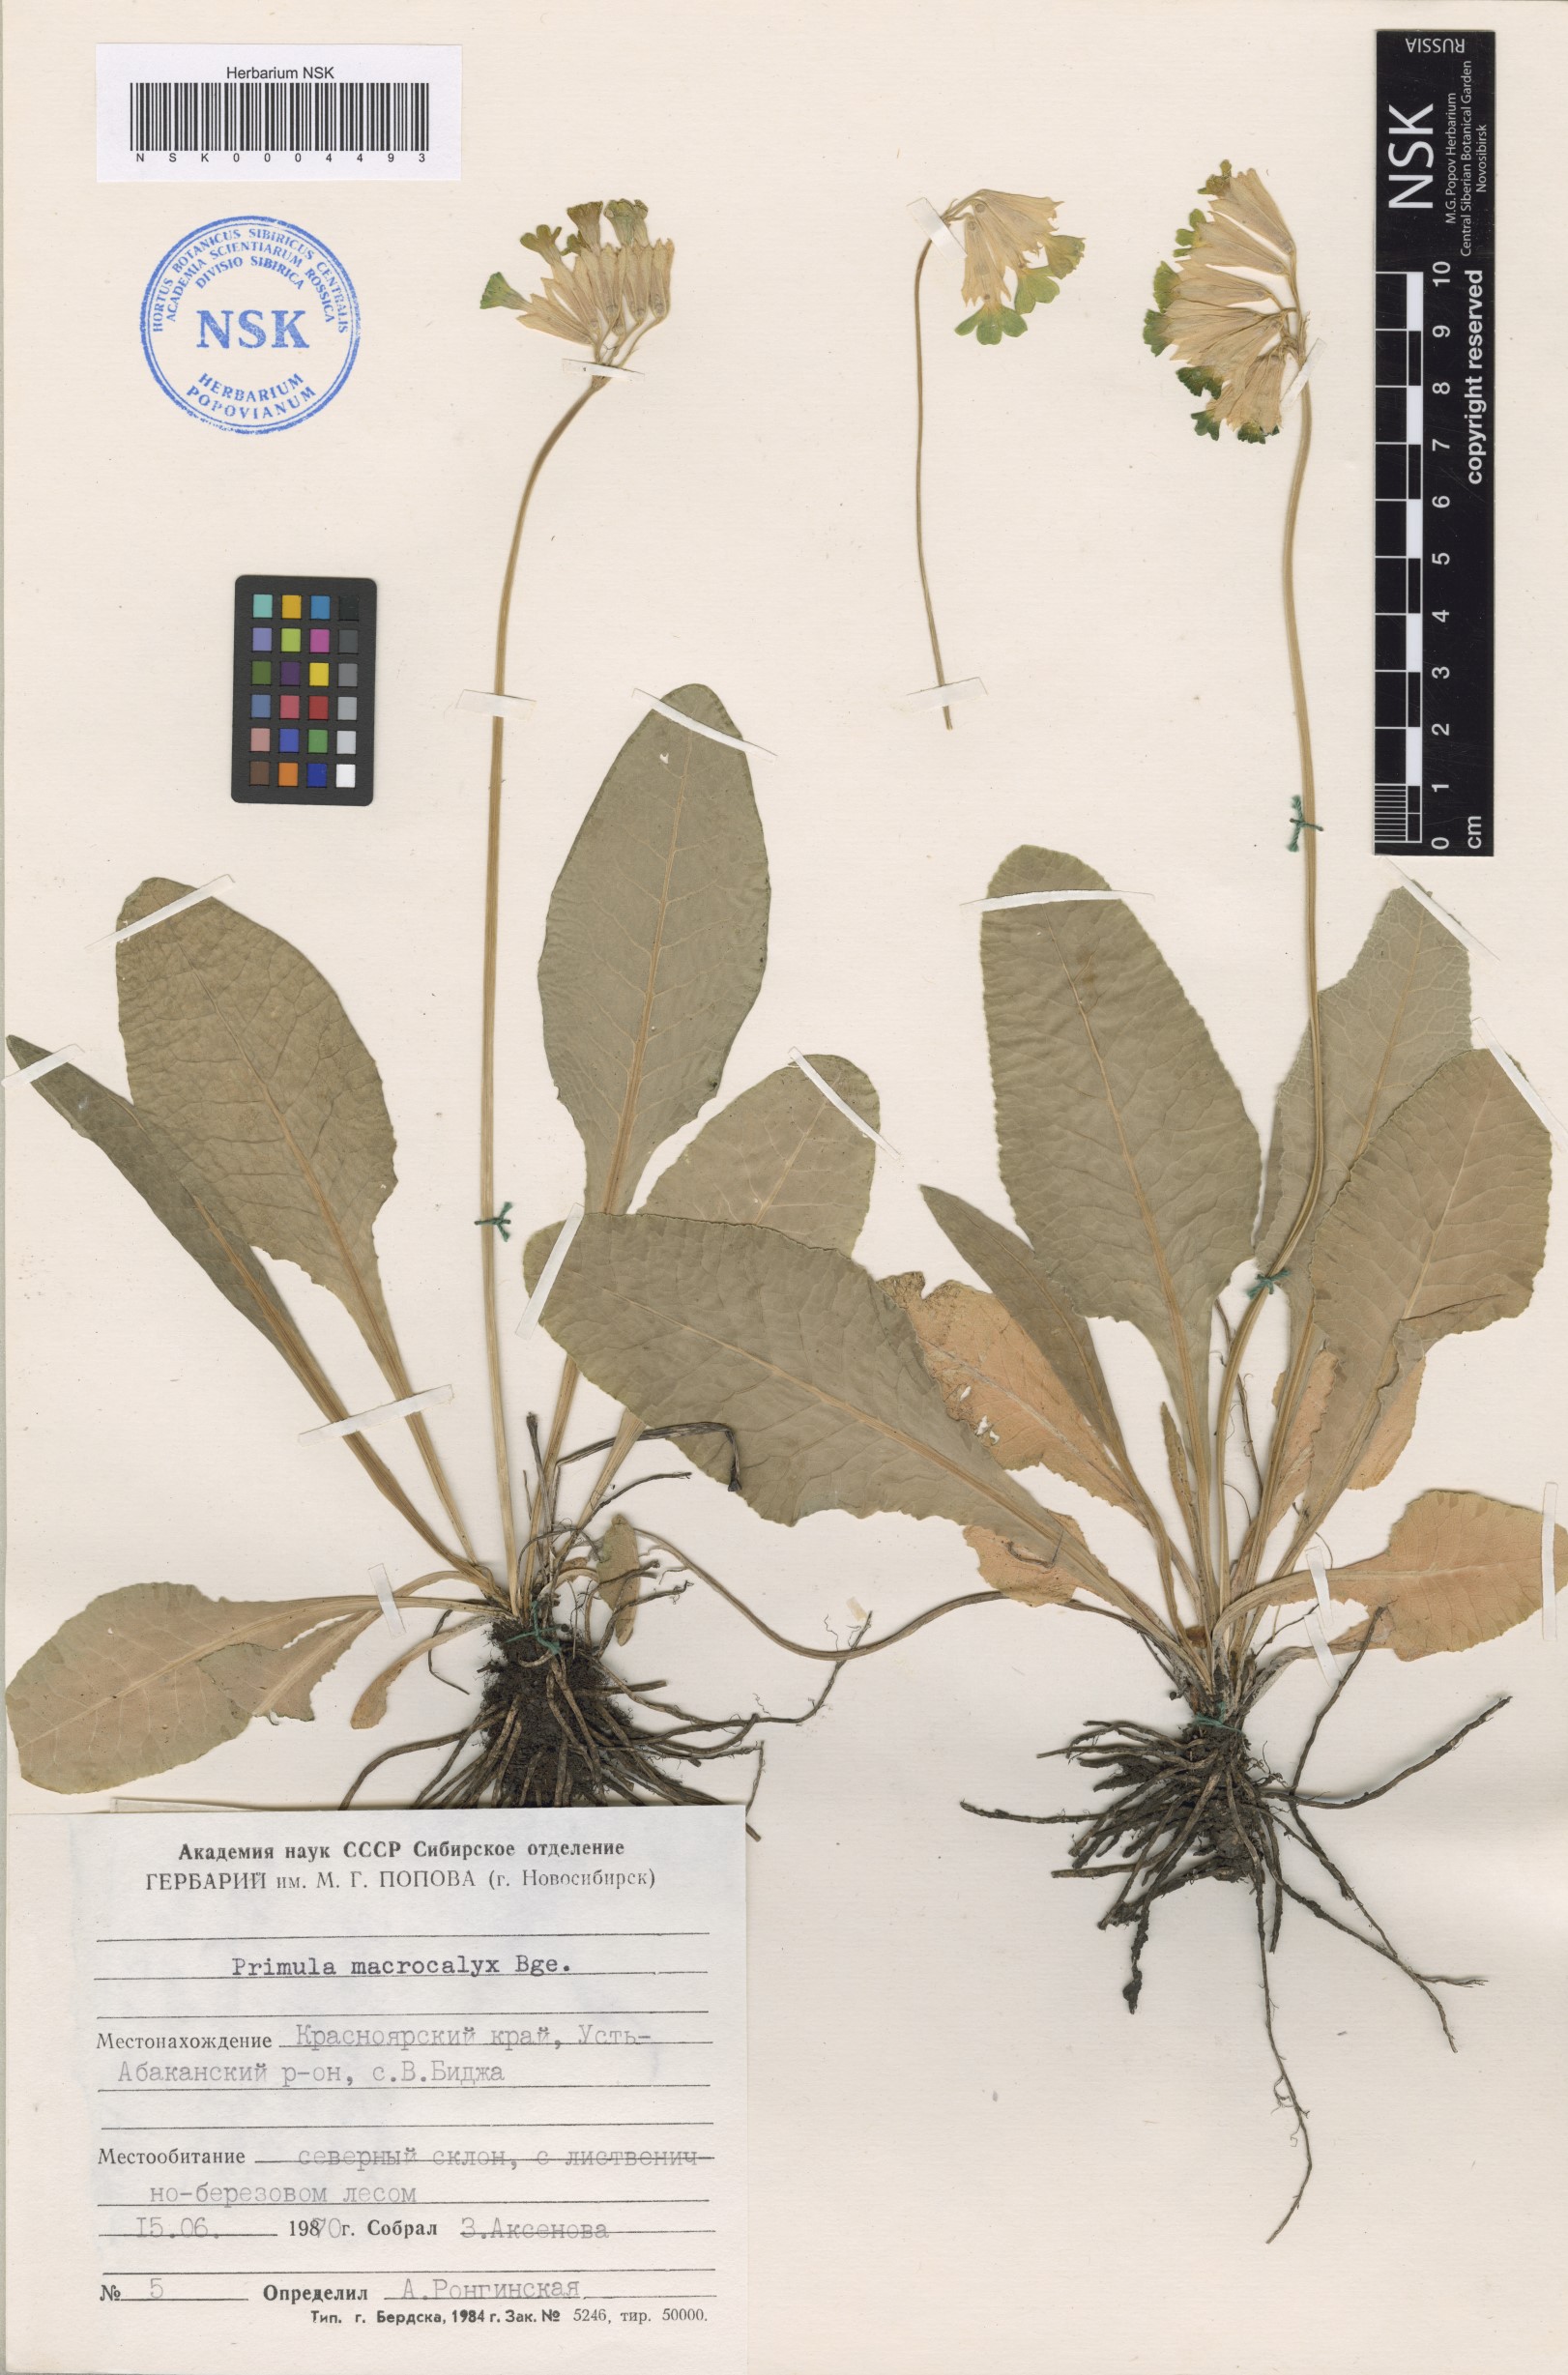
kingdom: Plantae
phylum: Tracheophyta
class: Magnoliopsida
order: Ericales
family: Primulaceae
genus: Primula
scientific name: Primula veris
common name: Cowslip
